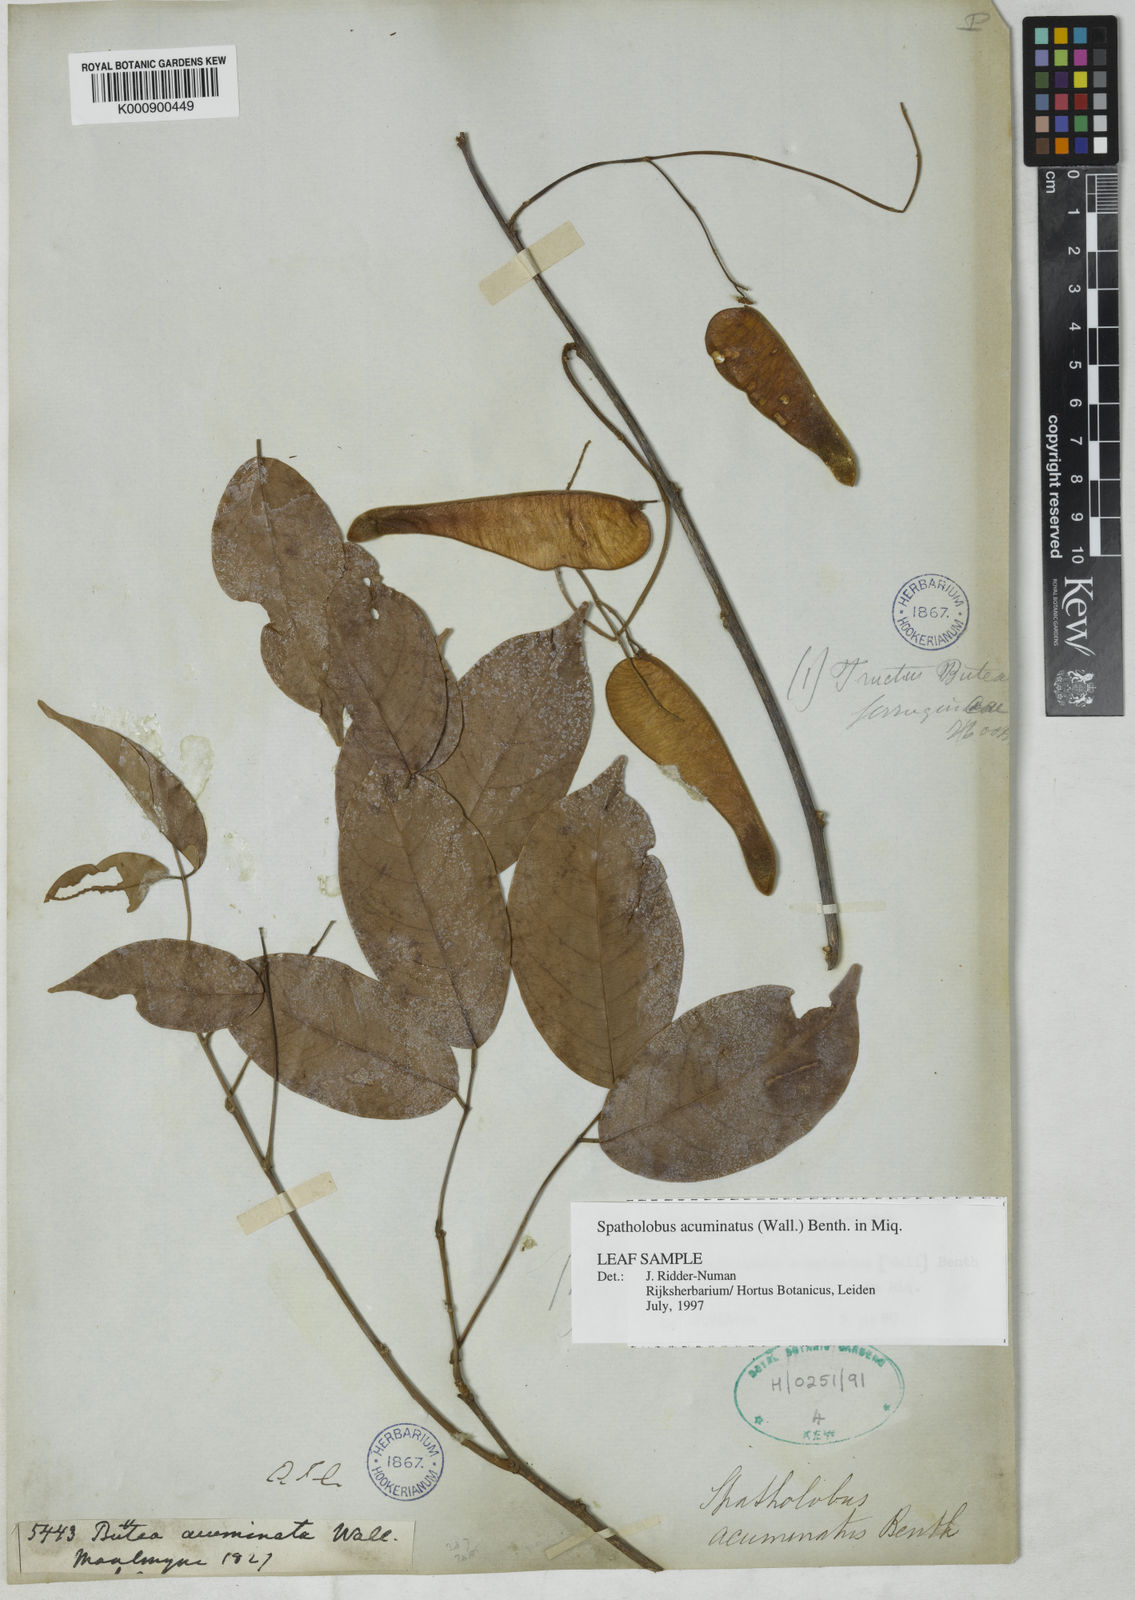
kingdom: Plantae
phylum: Tracheophyta
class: Magnoliopsida
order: Fabales
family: Fabaceae
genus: Spatholobus
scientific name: Spatholobus acuminatus
